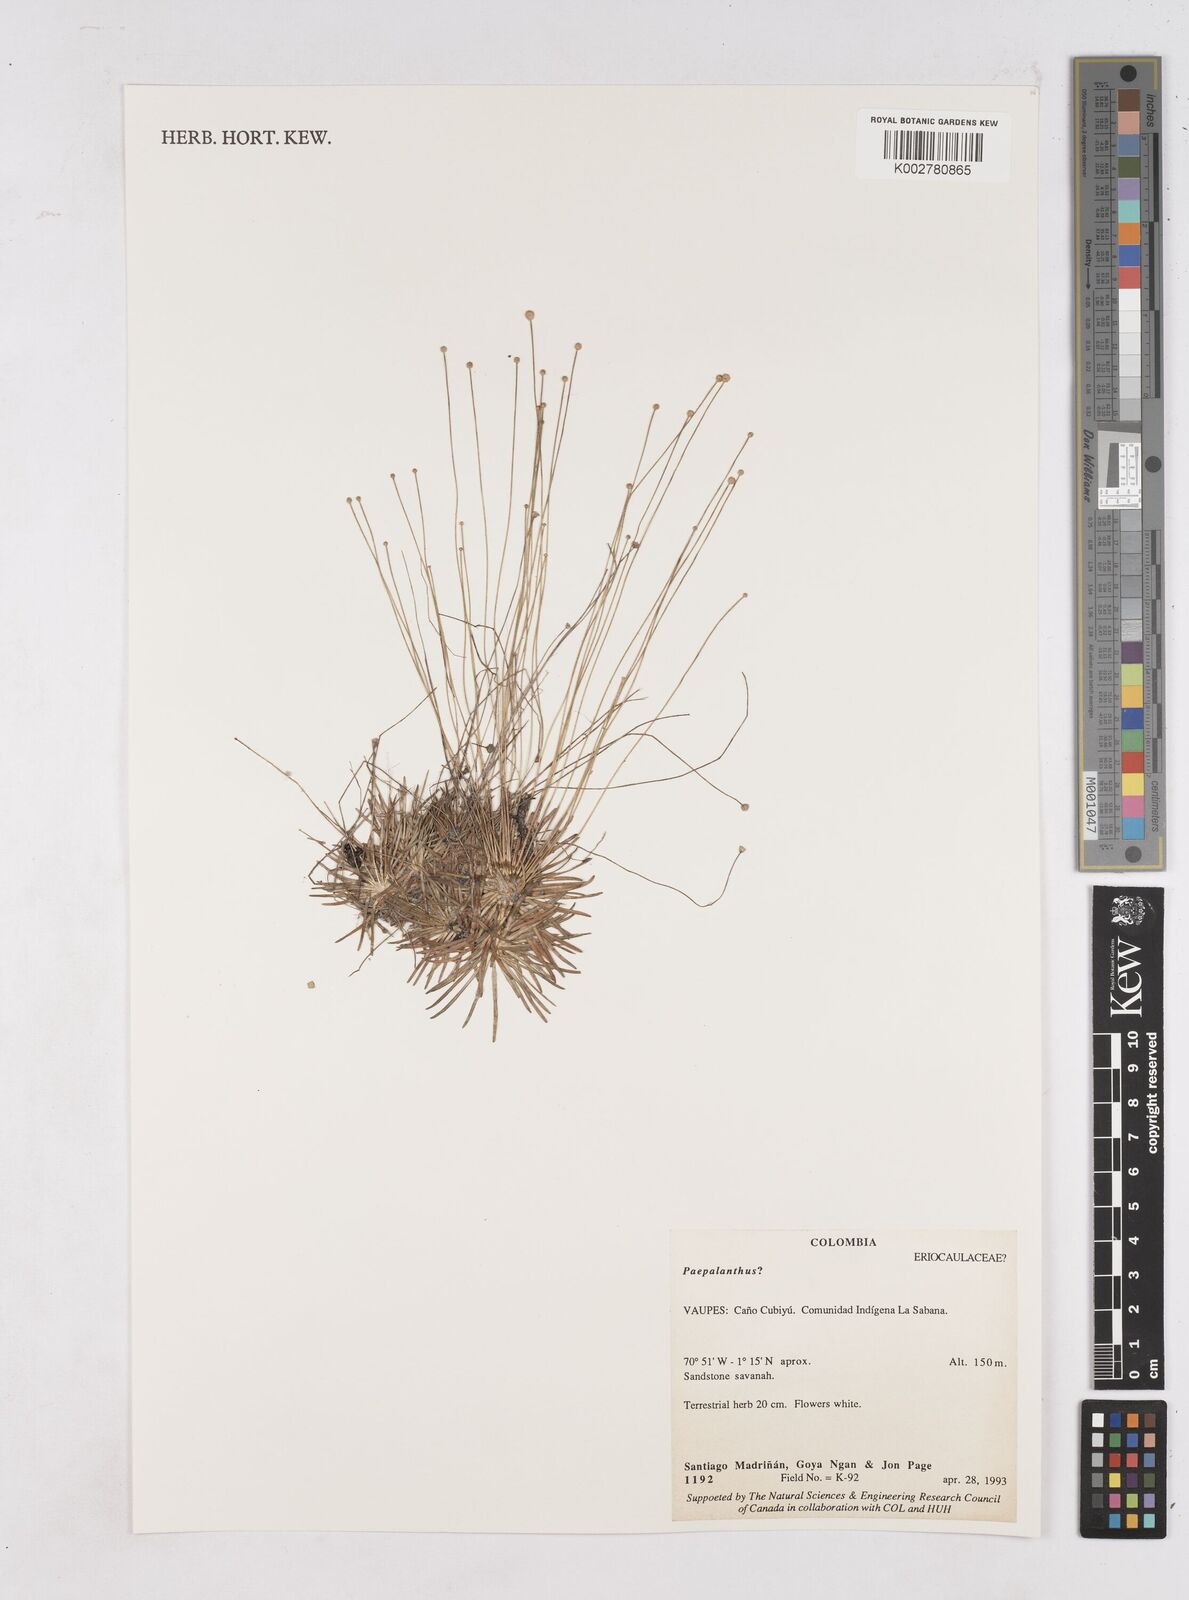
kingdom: Plantae
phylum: Tracheophyta
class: Liliopsida
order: Poales
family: Eriocaulaceae
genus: Paepalanthus
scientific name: Paepalanthus
